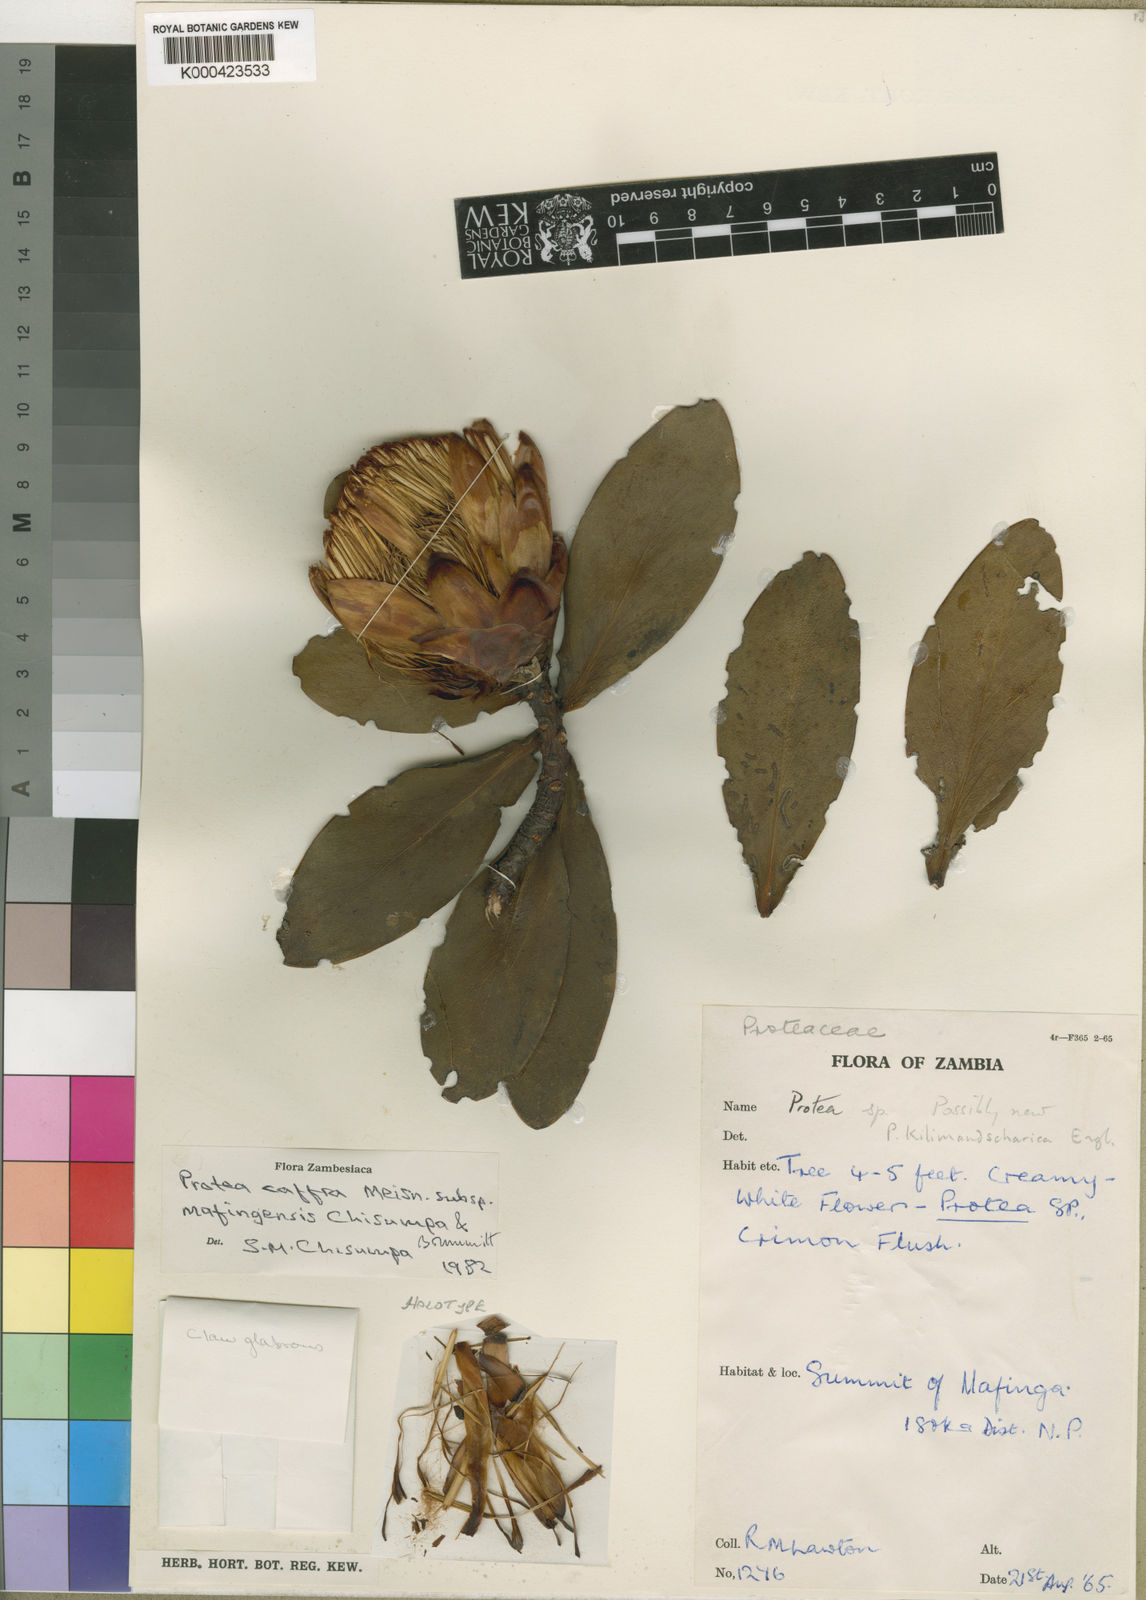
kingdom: Plantae
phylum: Tracheophyta
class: Magnoliopsida
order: Proteales
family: Proteaceae
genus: Protea
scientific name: Protea caffra
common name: Common sugarbush
